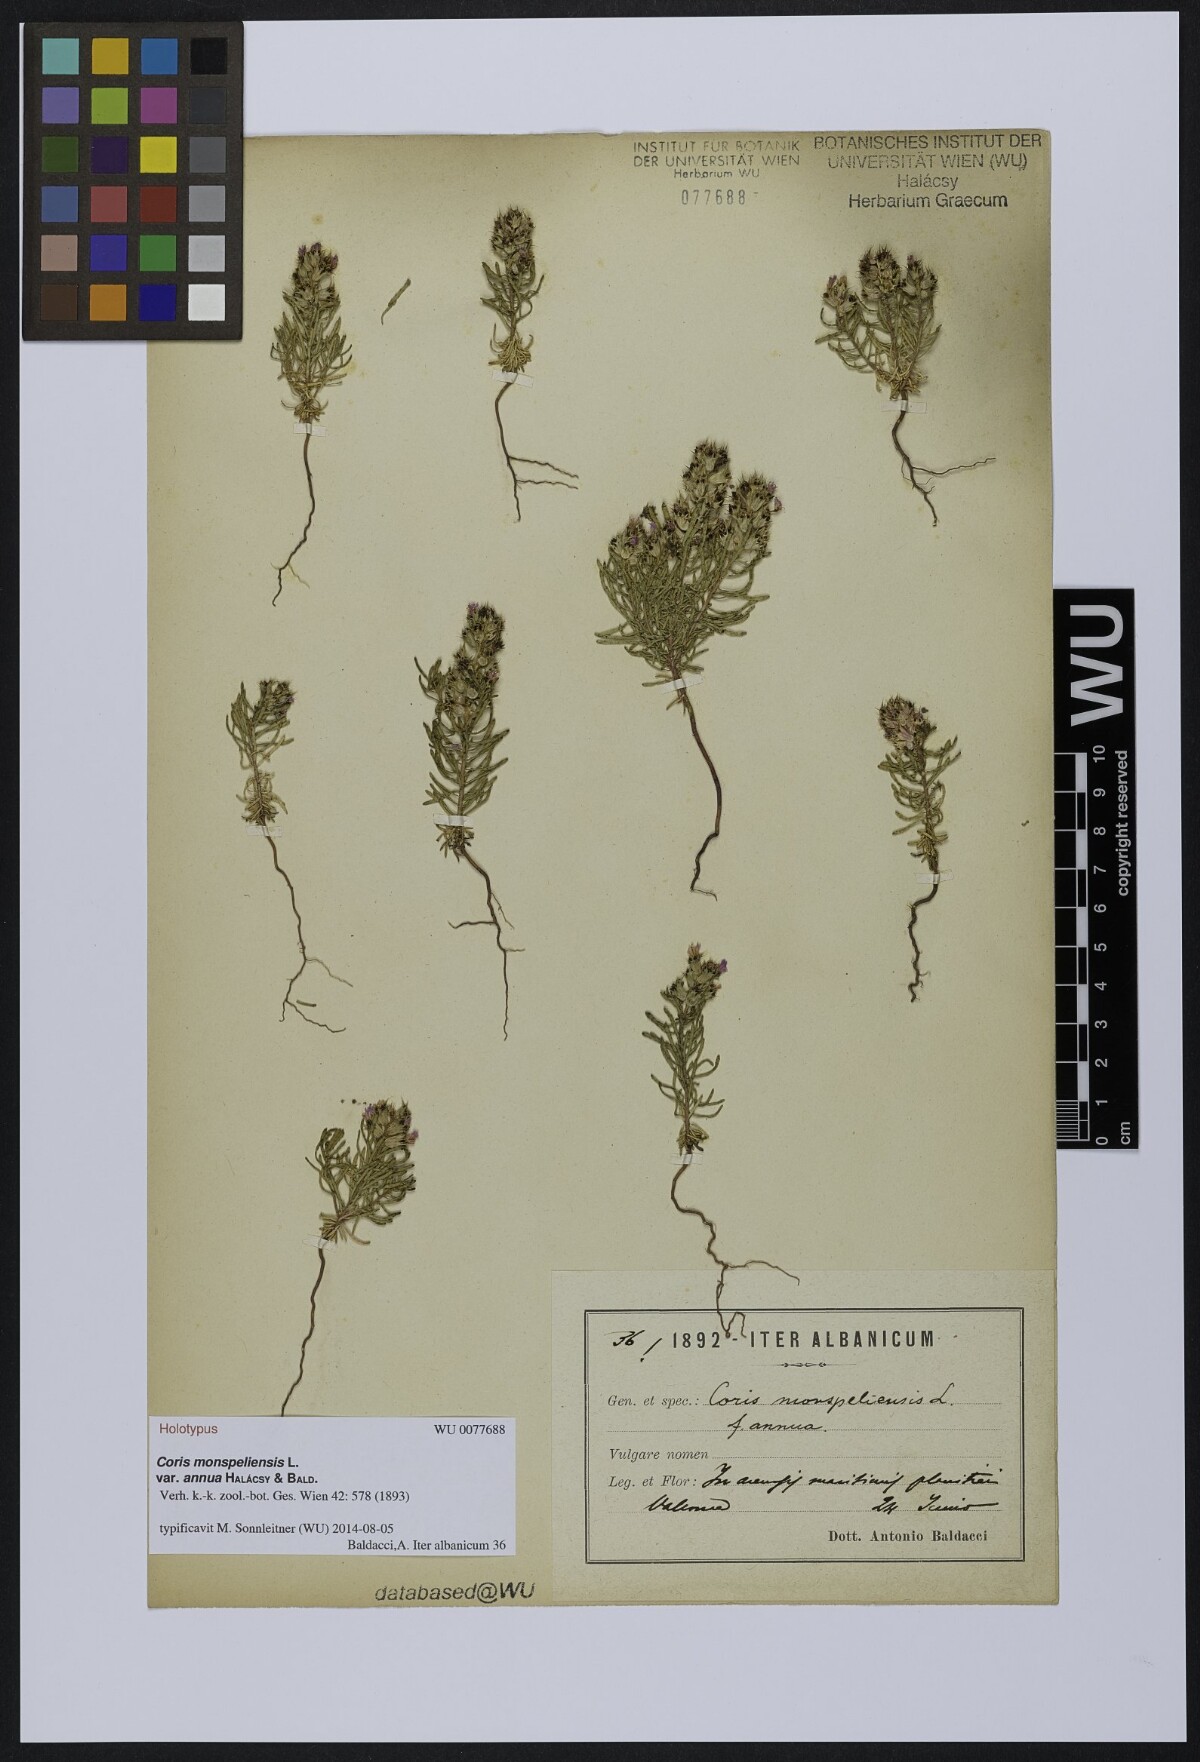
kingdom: Plantae
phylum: Tracheophyta
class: Magnoliopsida
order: Ericales
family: Primulaceae
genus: Coris
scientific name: Coris monspeliensis
